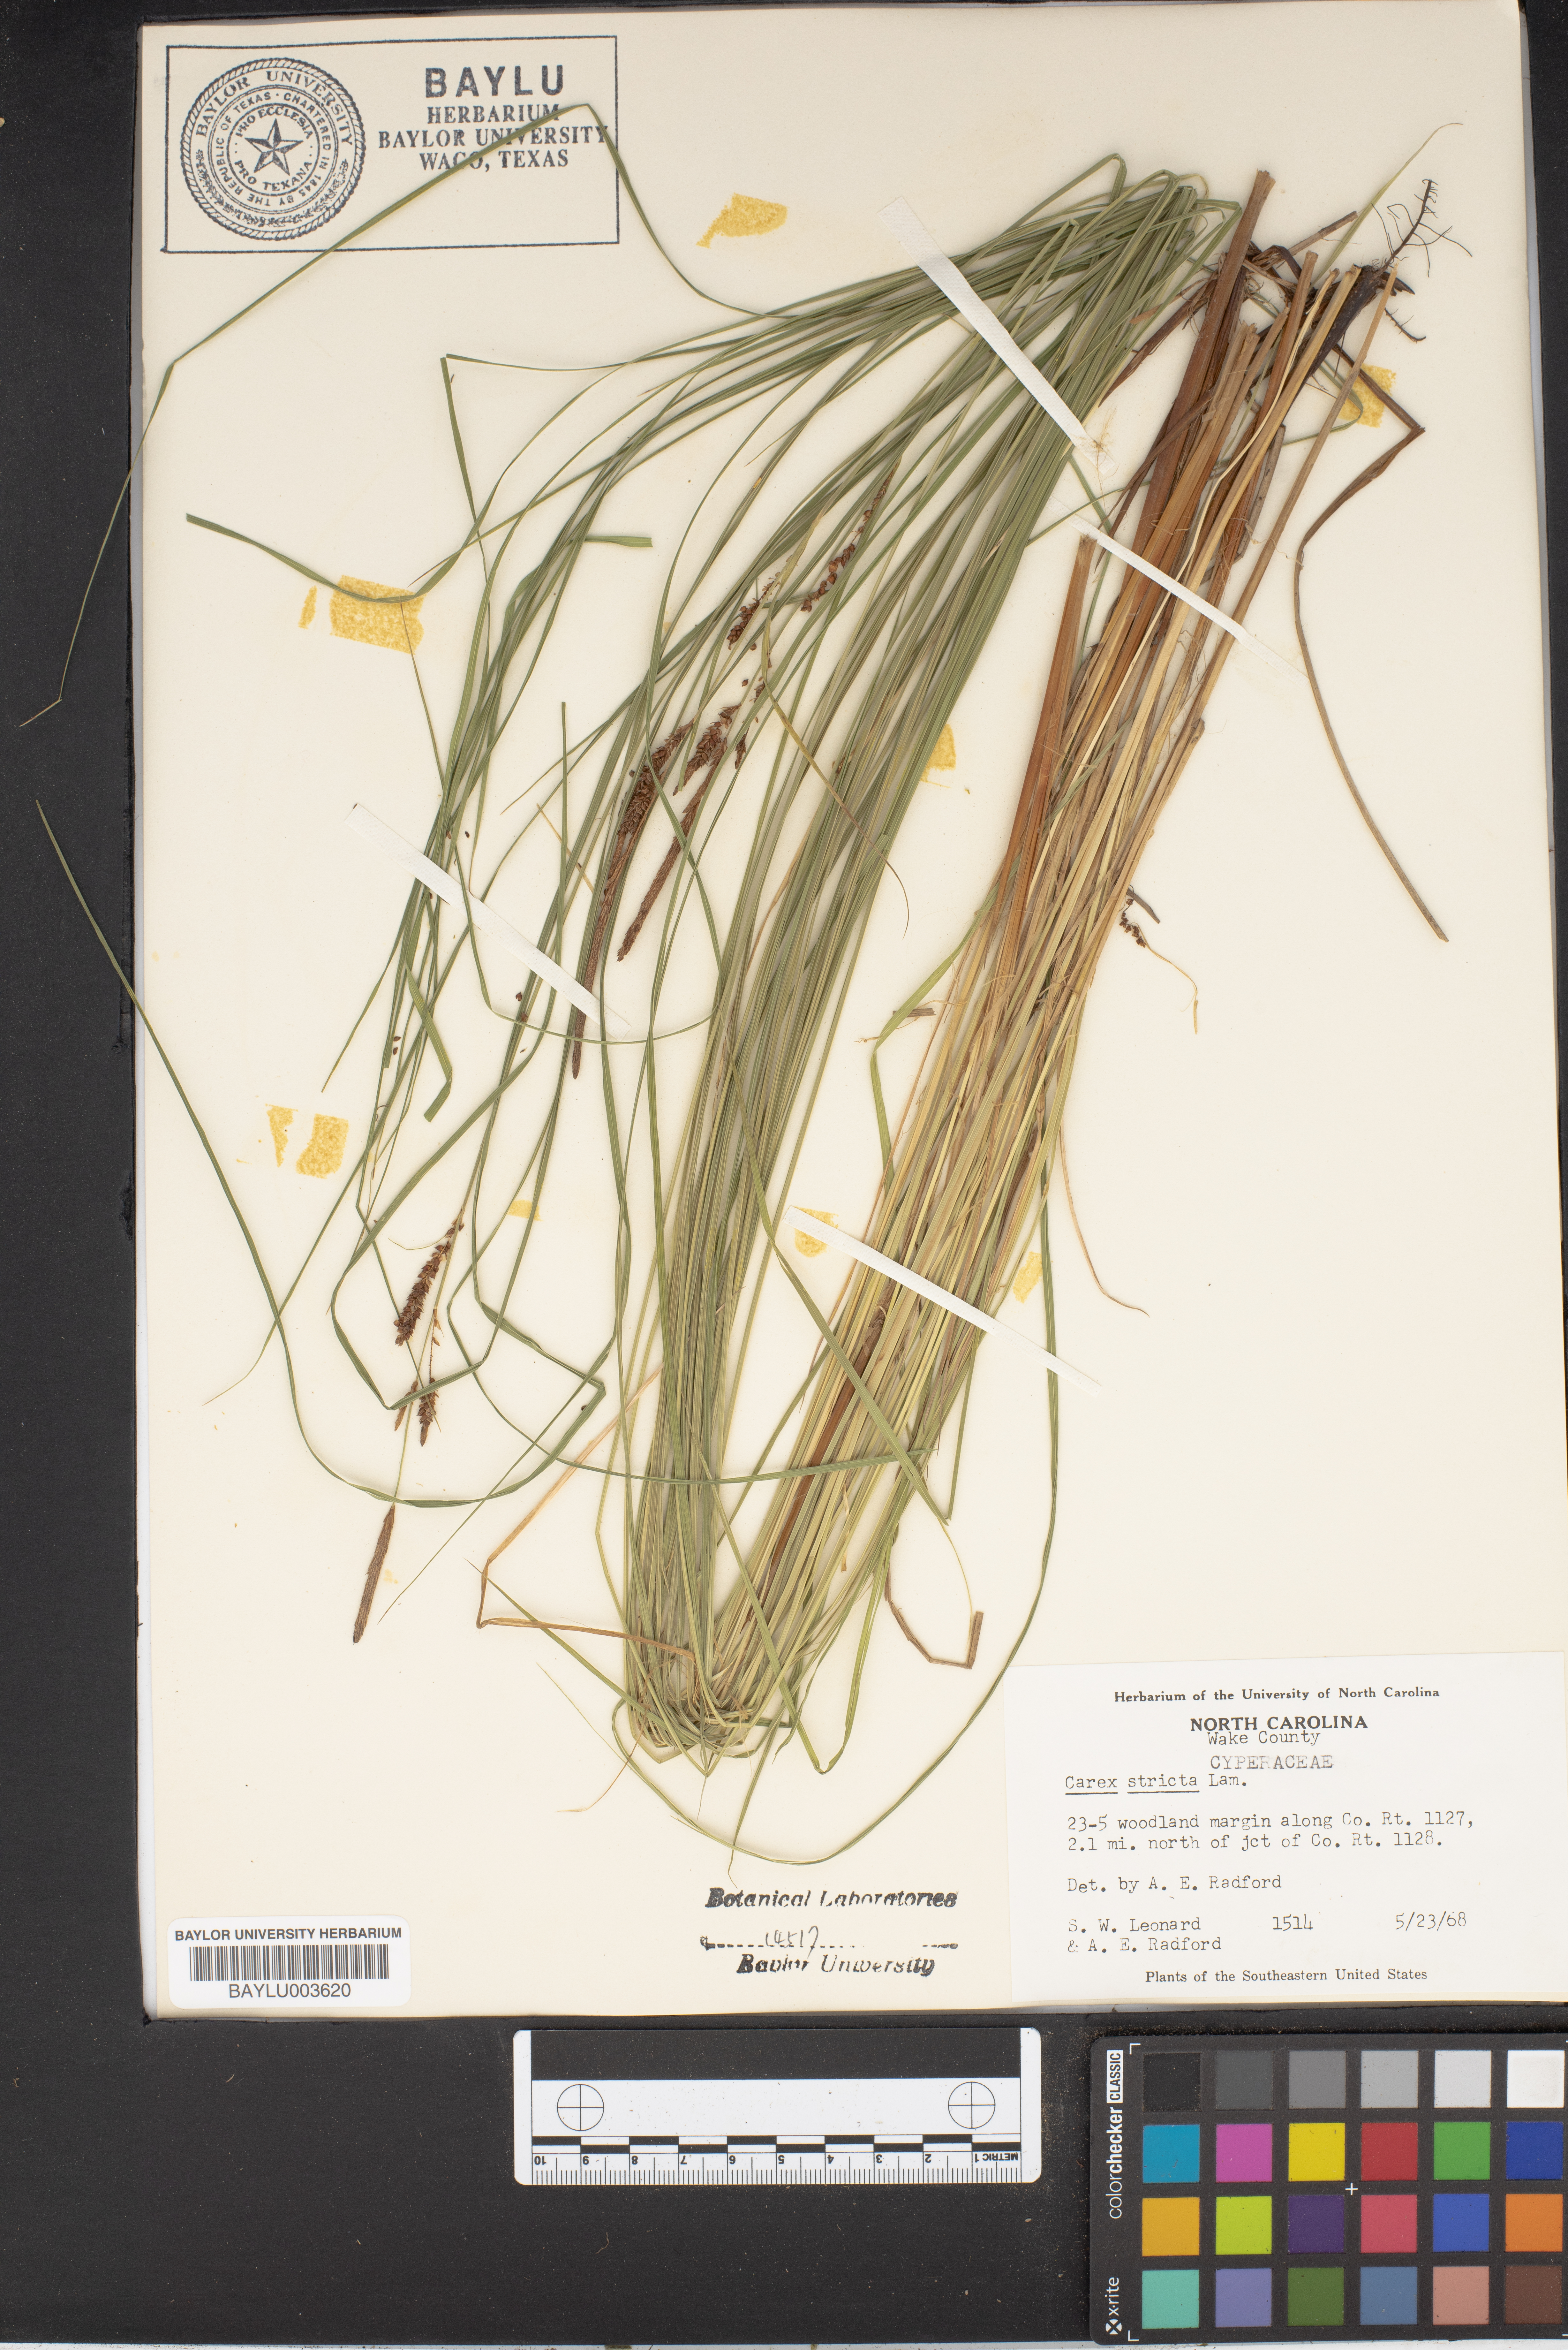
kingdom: Plantae
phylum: Tracheophyta
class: Liliopsida
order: Poales
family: Cyperaceae
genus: Carex
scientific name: Carex stricta
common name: Hummock sedge
